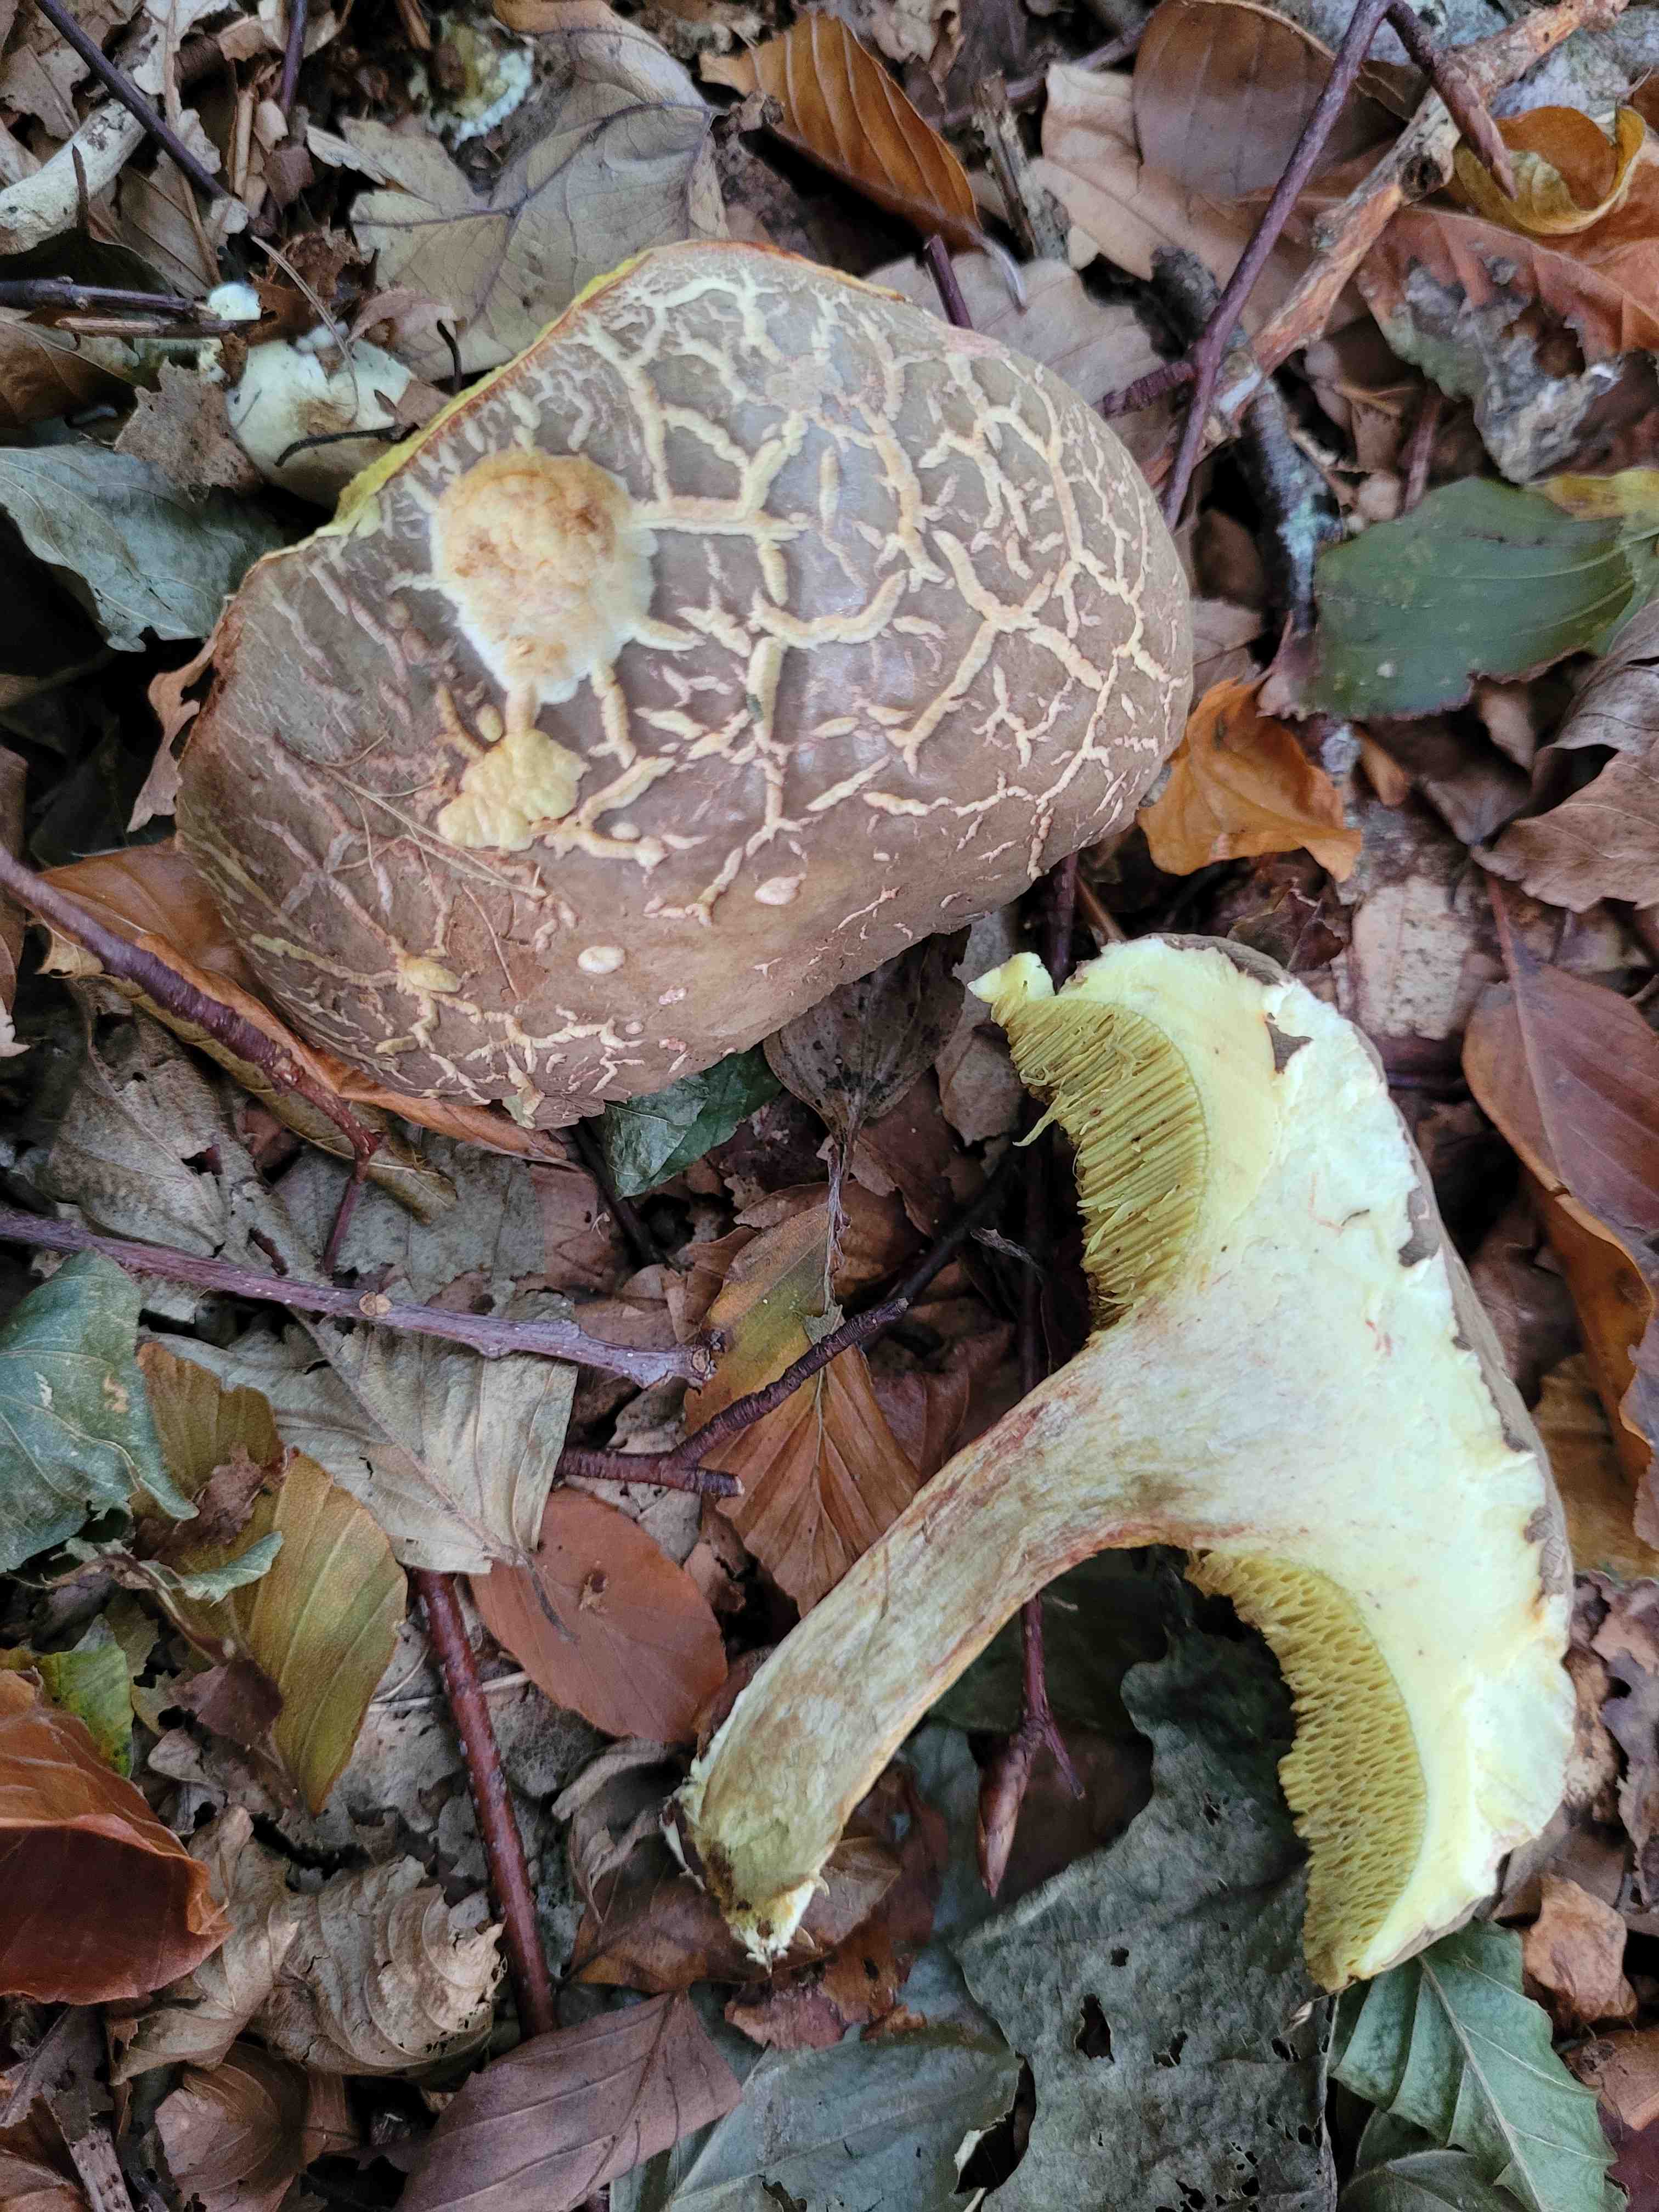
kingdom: Fungi
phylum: Basidiomycota
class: Agaricomycetes
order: Boletales
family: Boletaceae
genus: Xerocomellus
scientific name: Xerocomellus
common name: dværgrørhat
